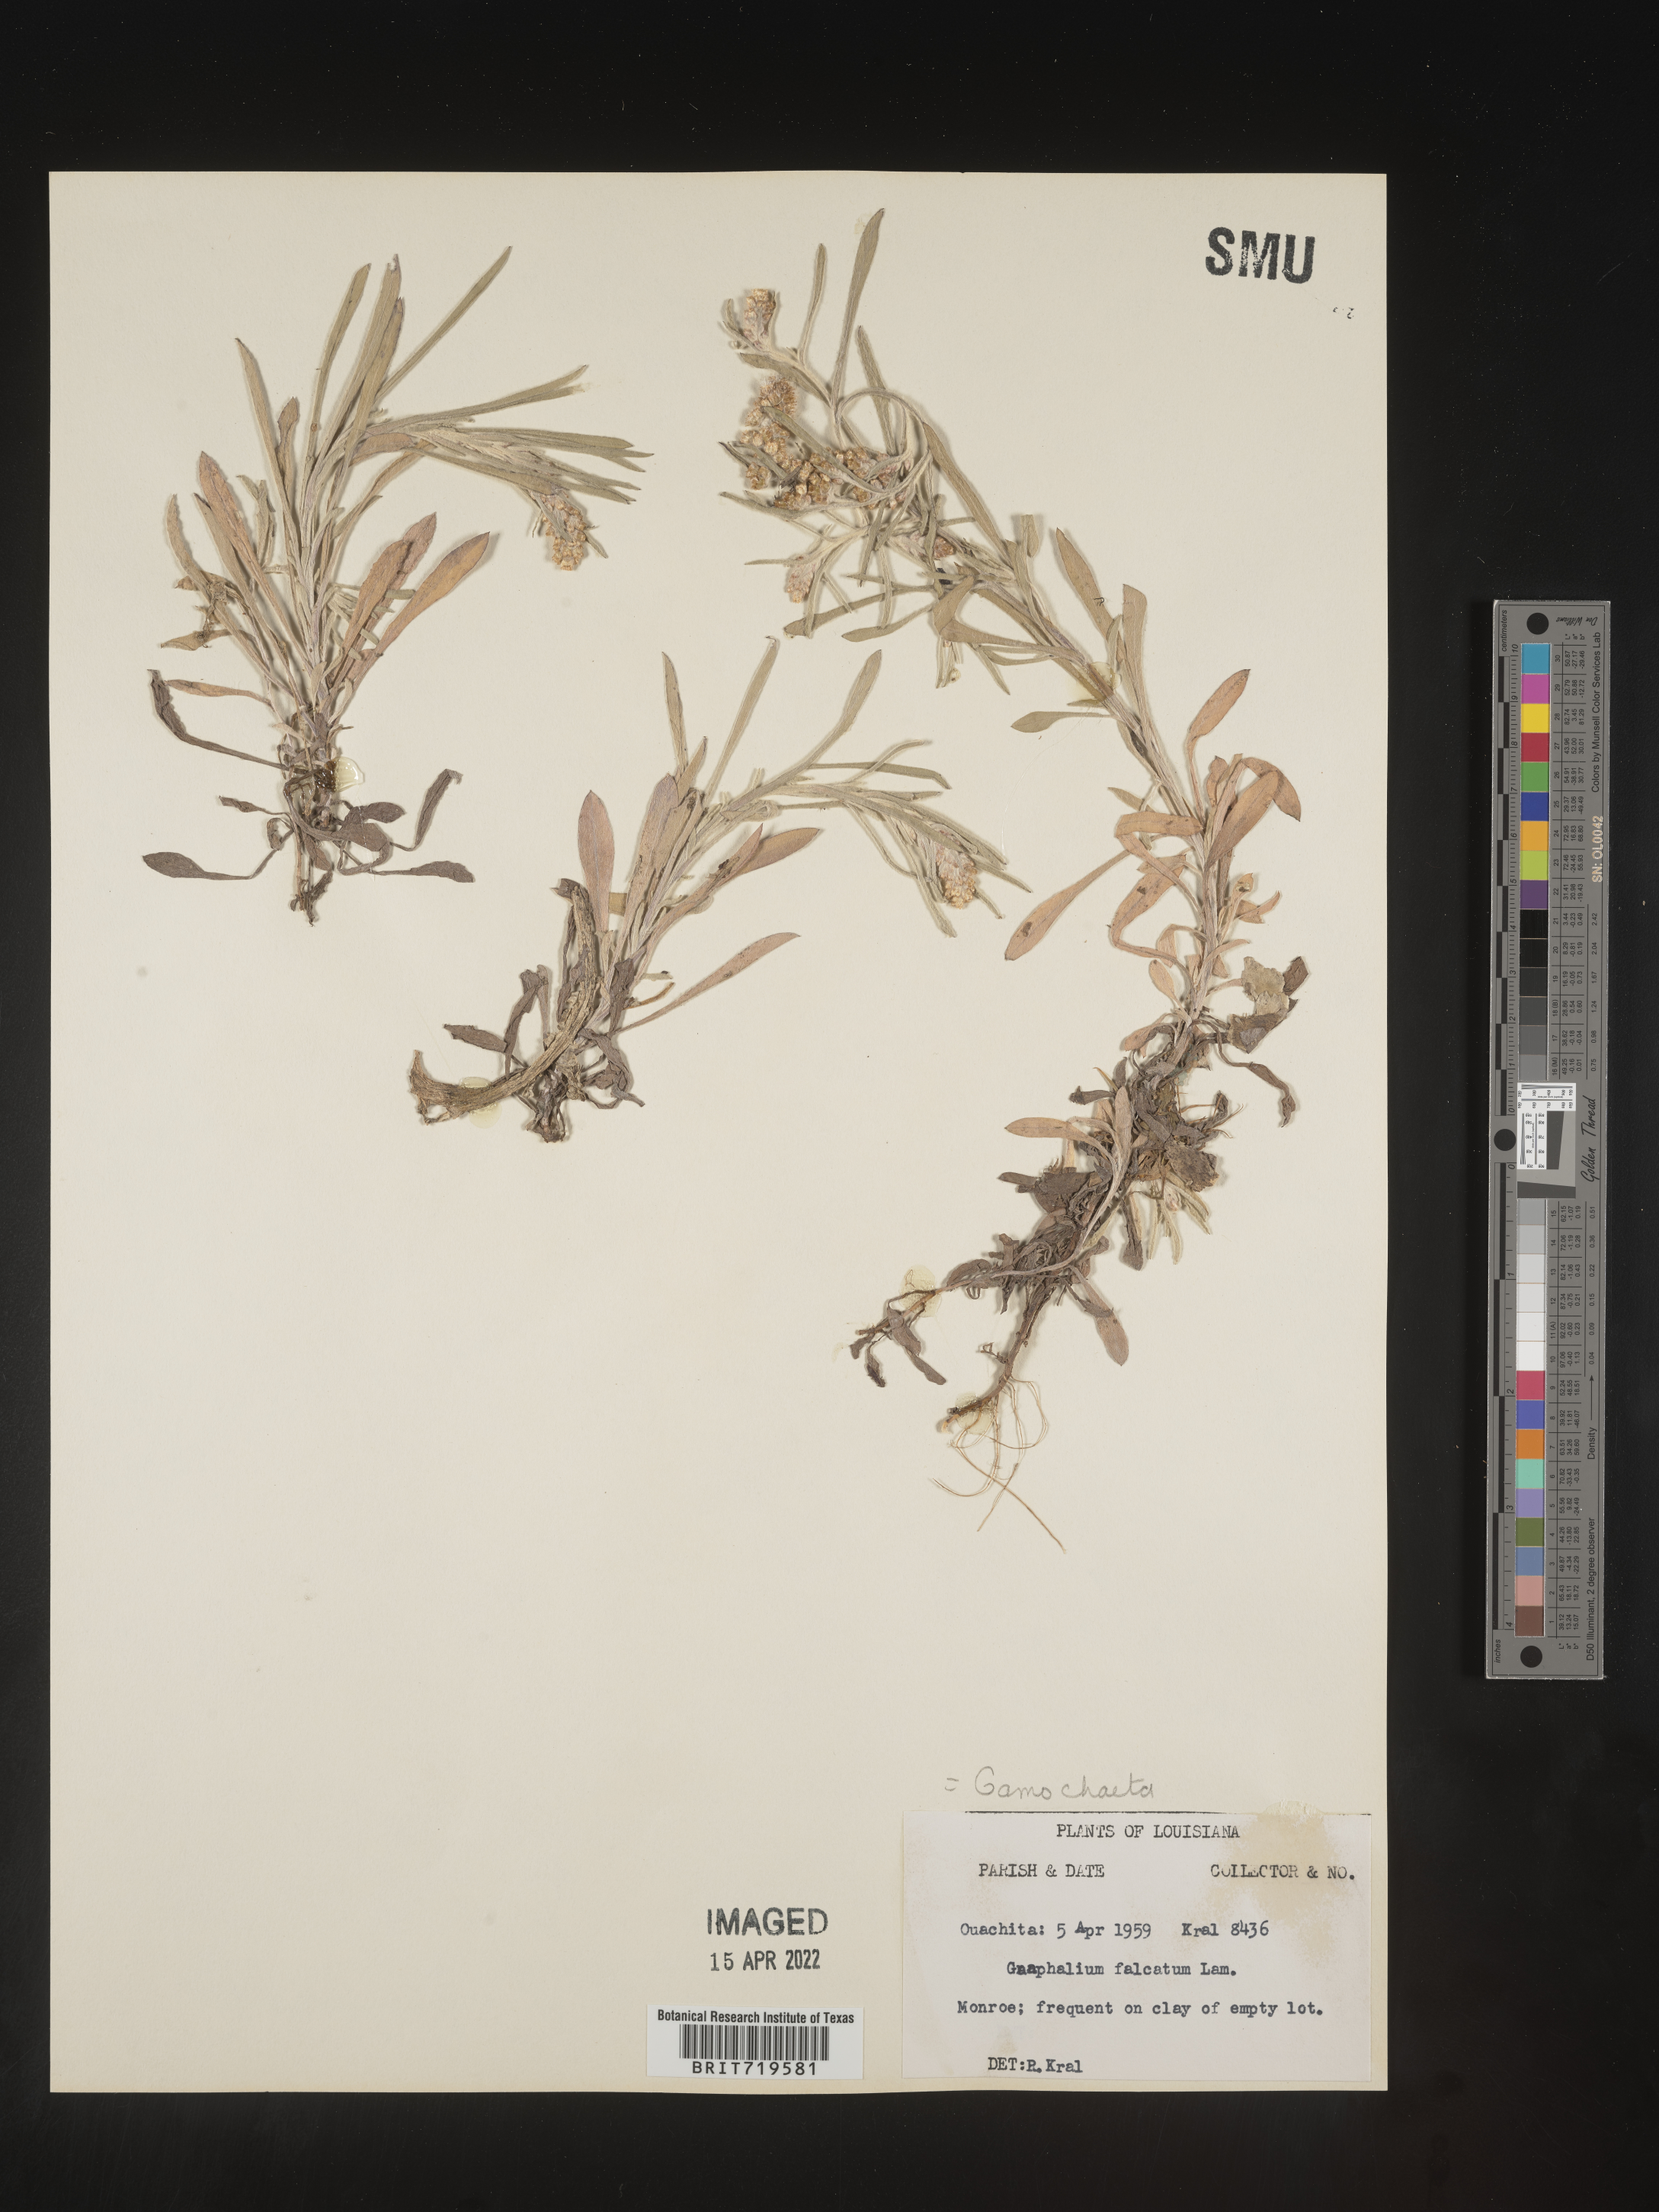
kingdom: Plantae
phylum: Tracheophyta
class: Magnoliopsida
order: Asterales
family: Asteraceae
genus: Gamochaeta
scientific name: Gamochaeta antillana
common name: Delicate everlasting
